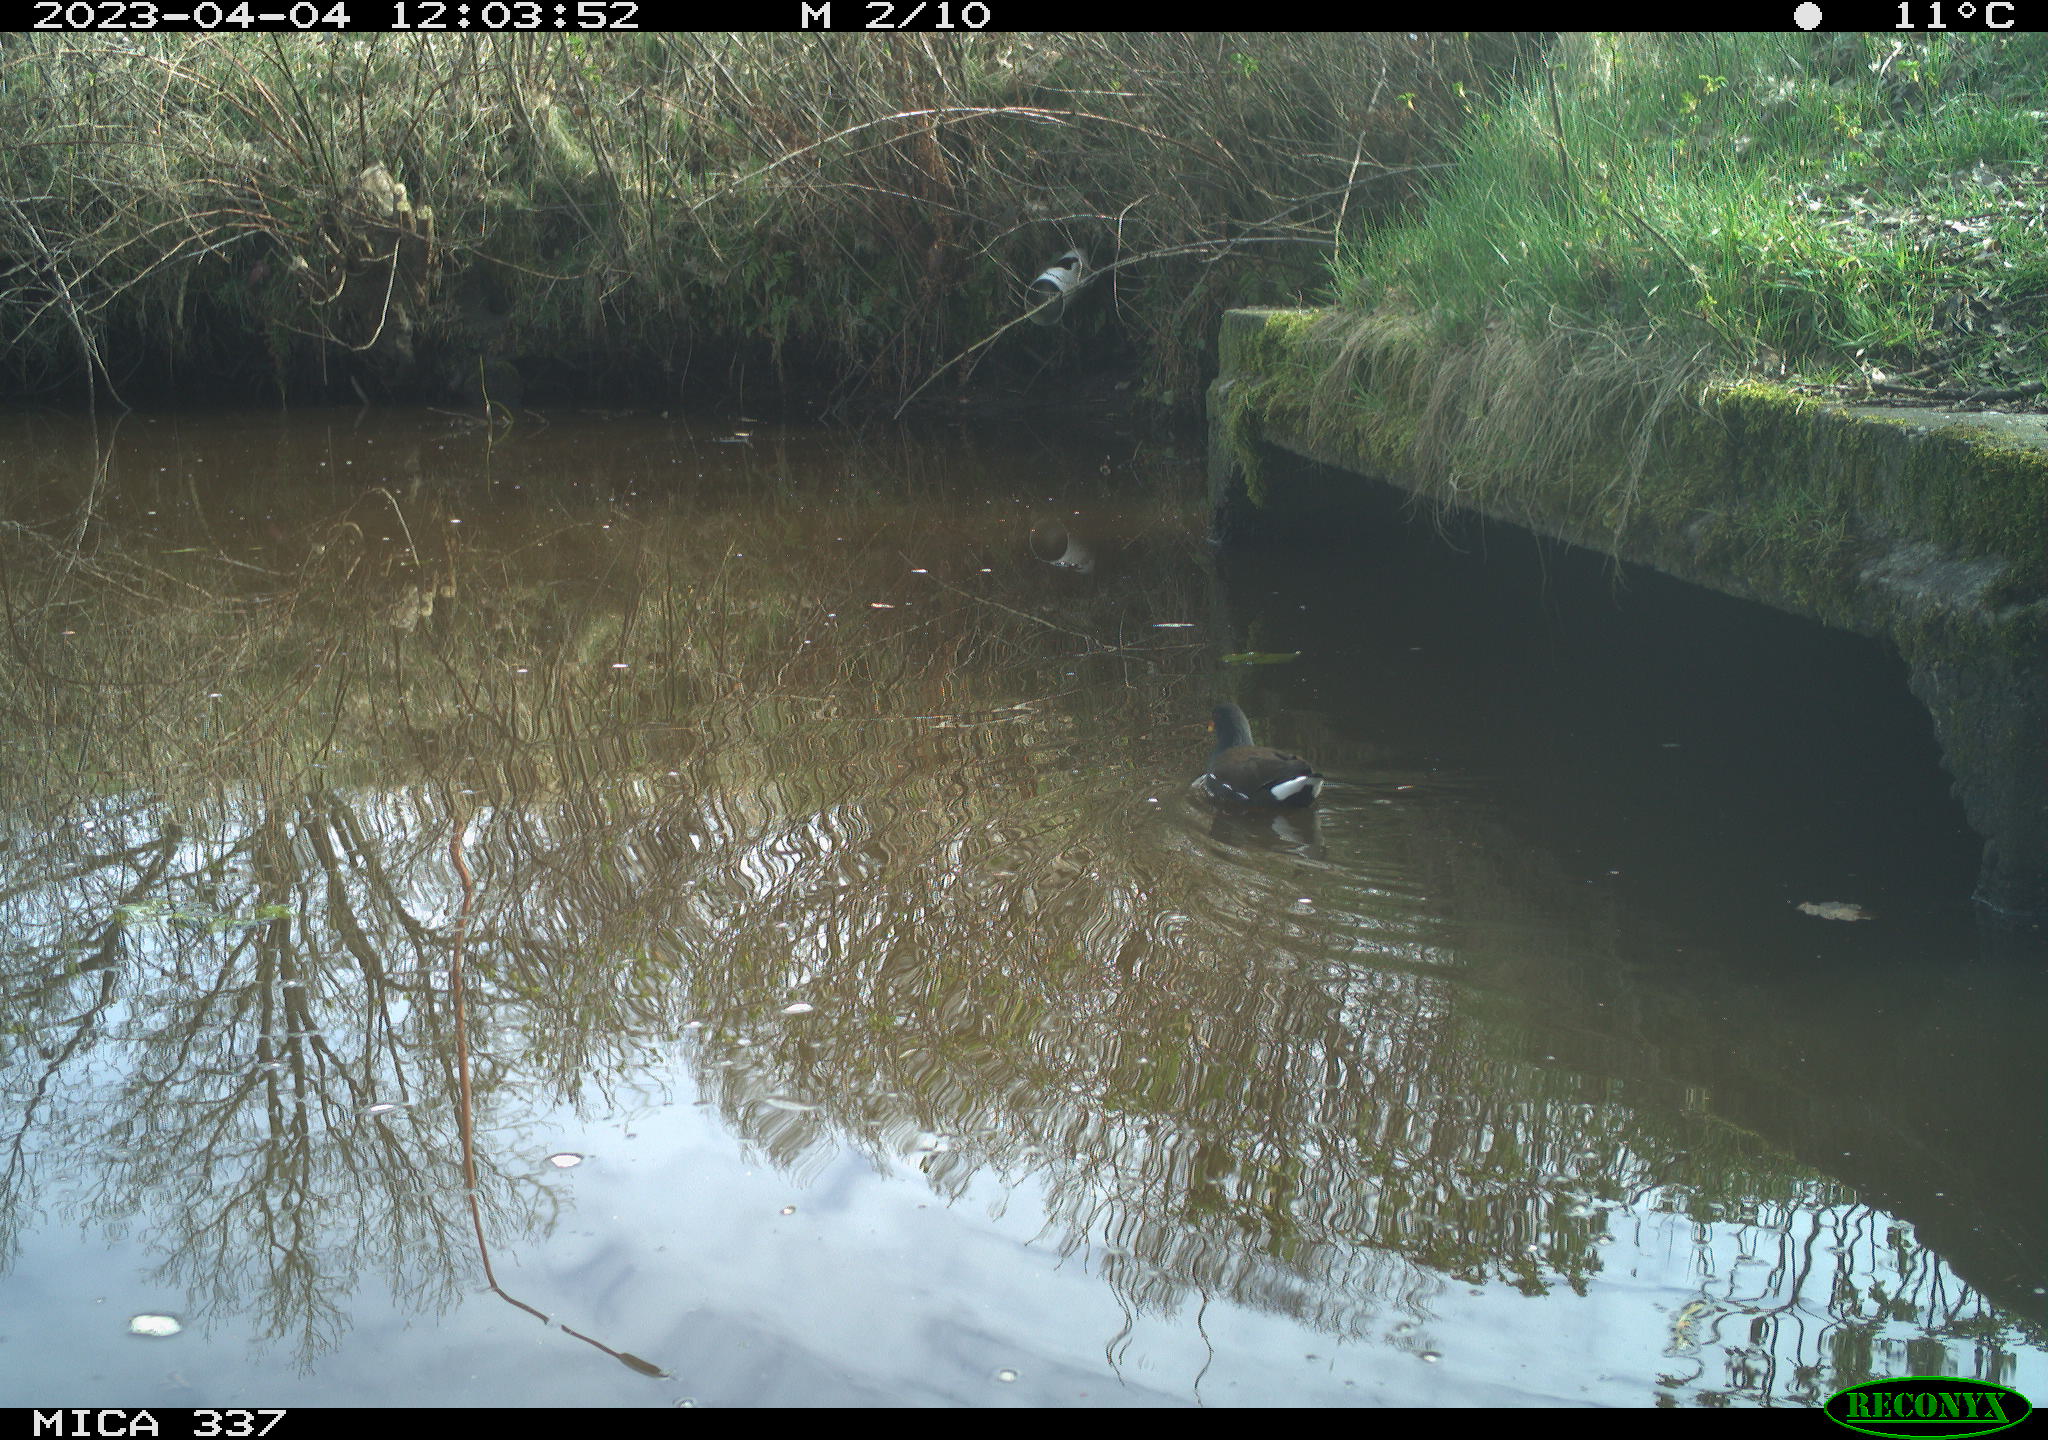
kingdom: Animalia
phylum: Chordata
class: Aves
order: Gruiformes
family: Rallidae
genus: Gallinula
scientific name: Gallinula chloropus
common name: Common moorhen
